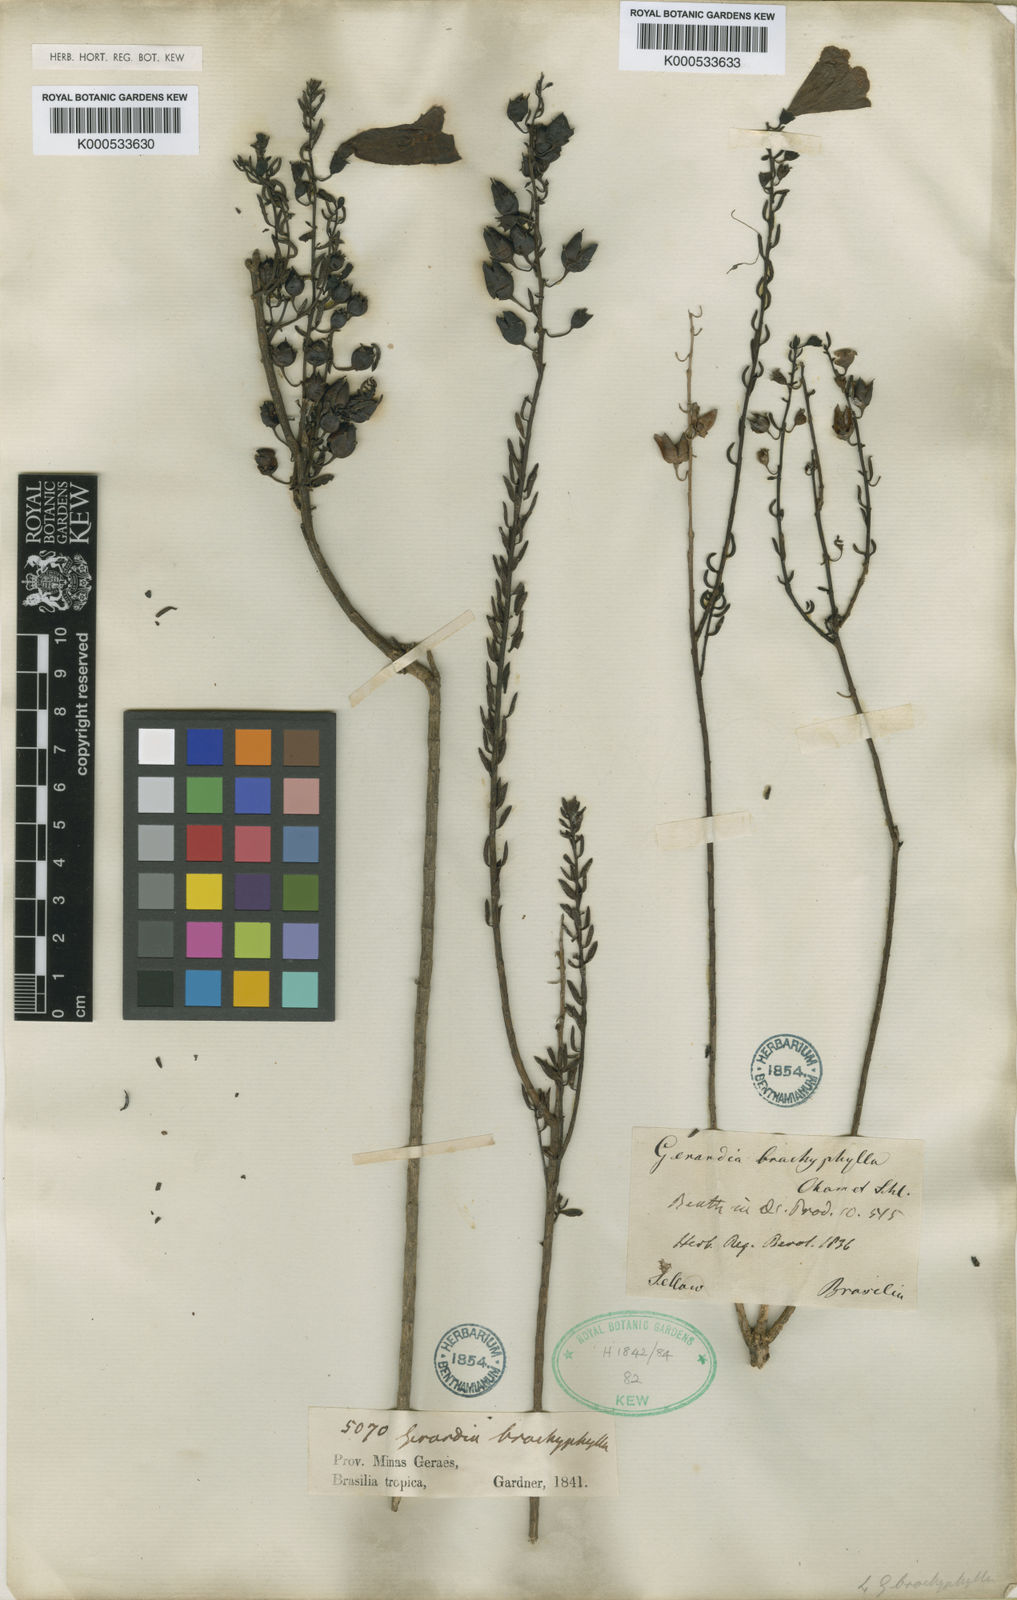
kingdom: Plantae
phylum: Tracheophyta
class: Magnoliopsida
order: Lamiales
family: Orobanchaceae
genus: Agalinis
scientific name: Agalinis brachyphylla
